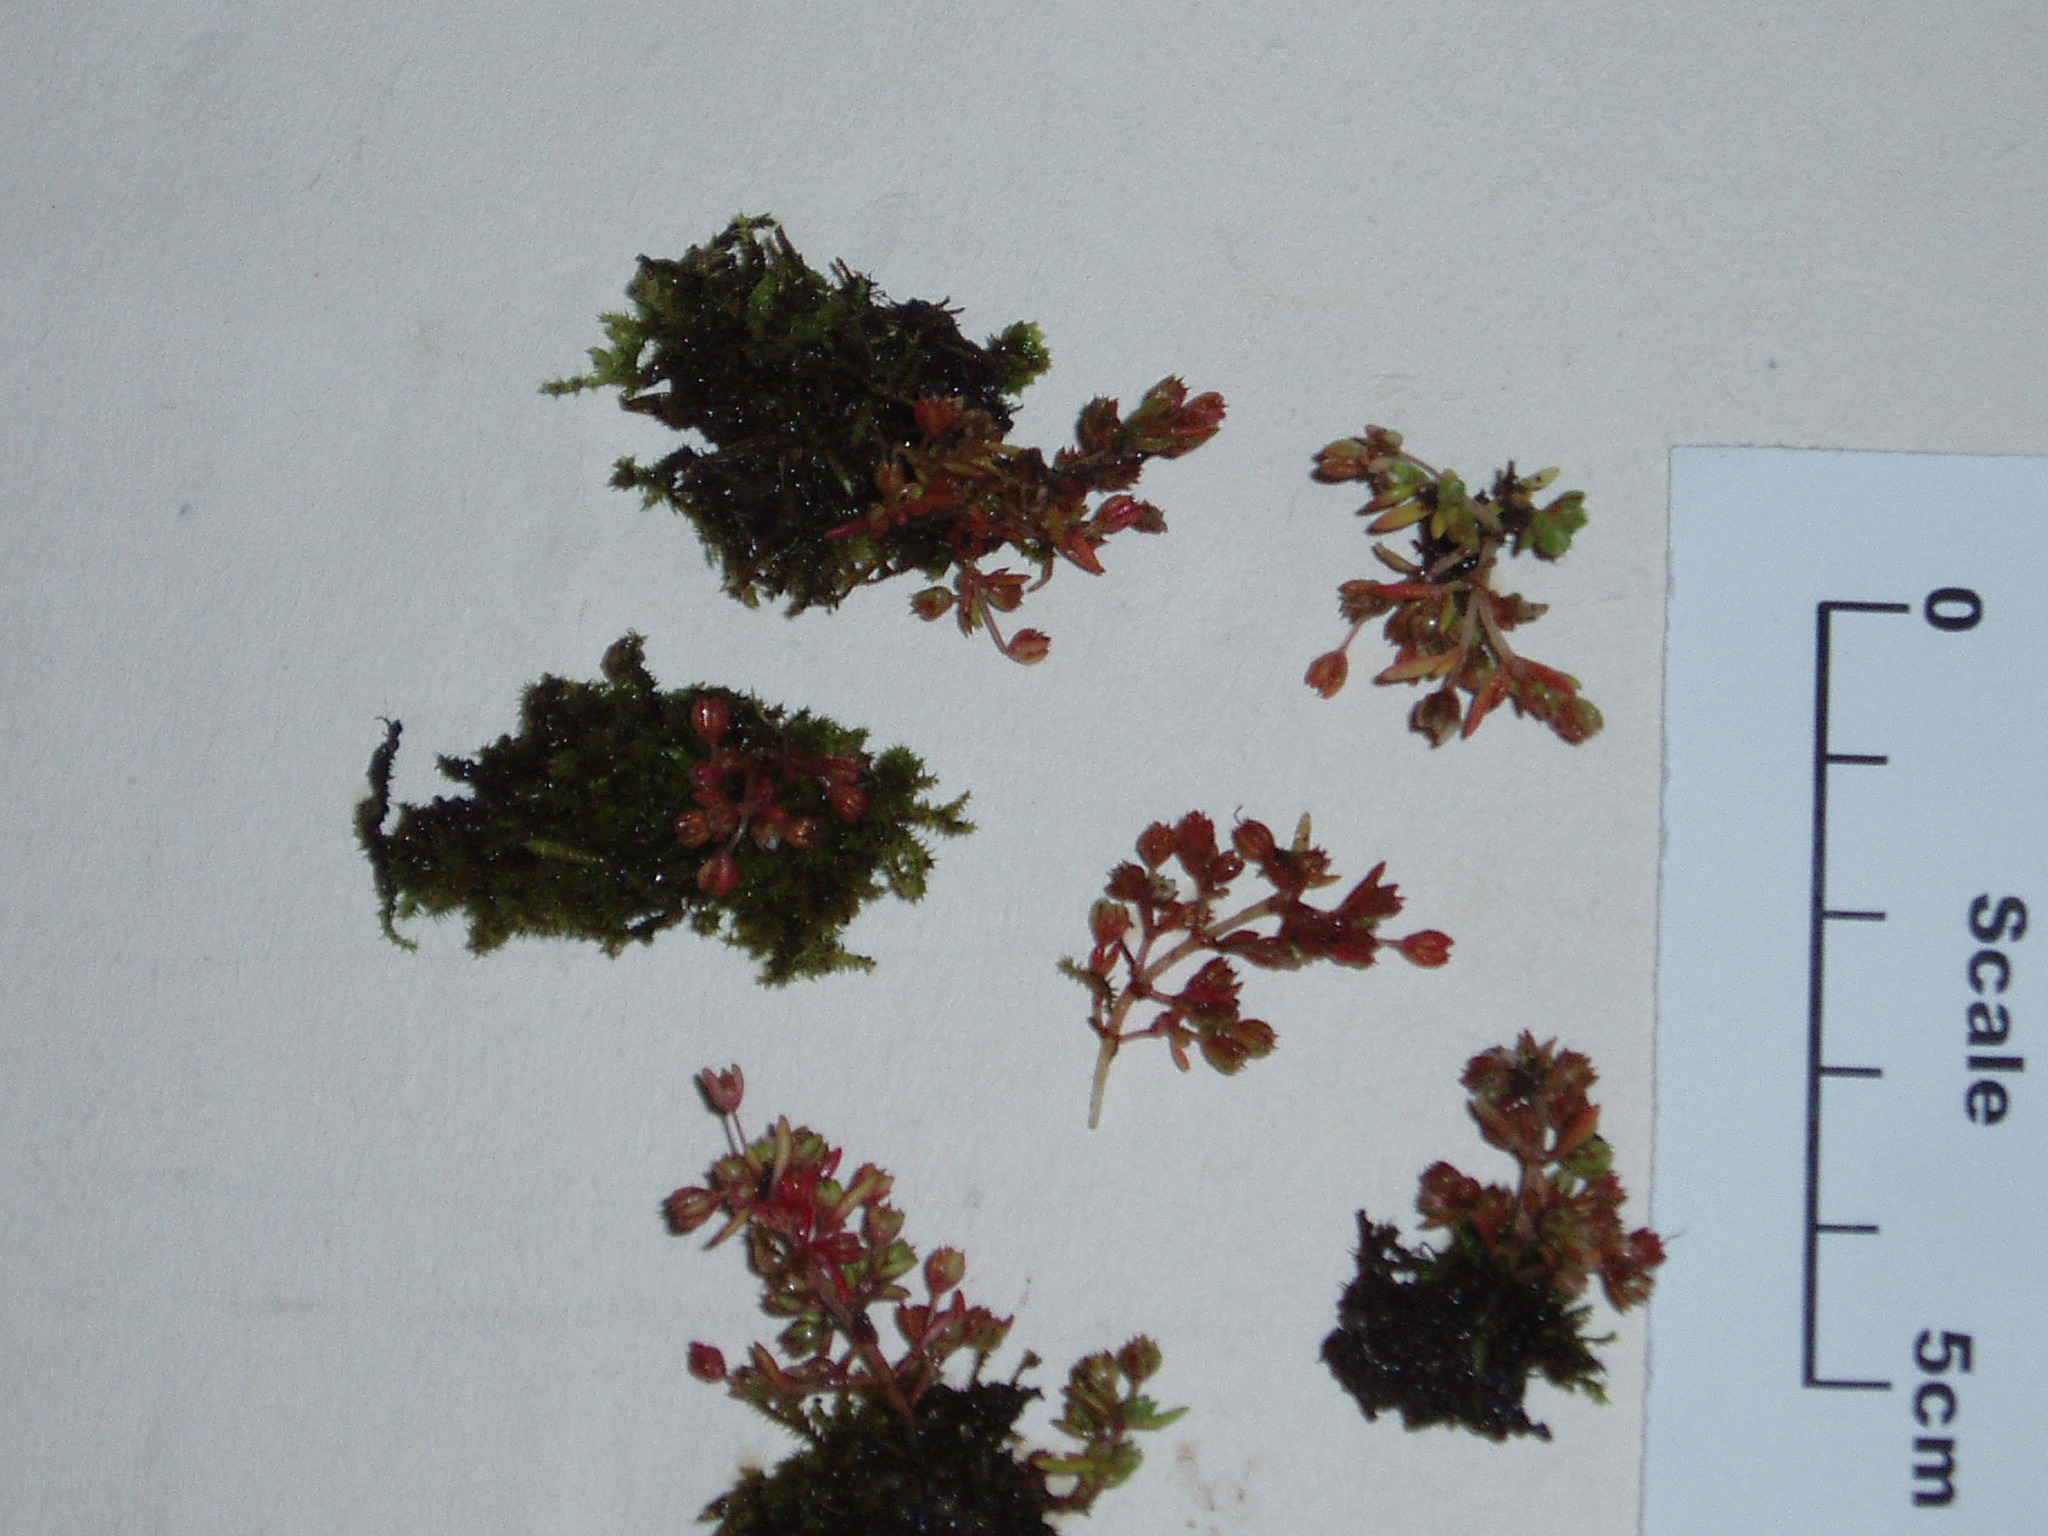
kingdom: Plantae
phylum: Tracheophyta
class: Magnoliopsida
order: Saxifragales
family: Crassulaceae
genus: Crassula
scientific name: Crassula decumbens
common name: Scilly pigmyweed
